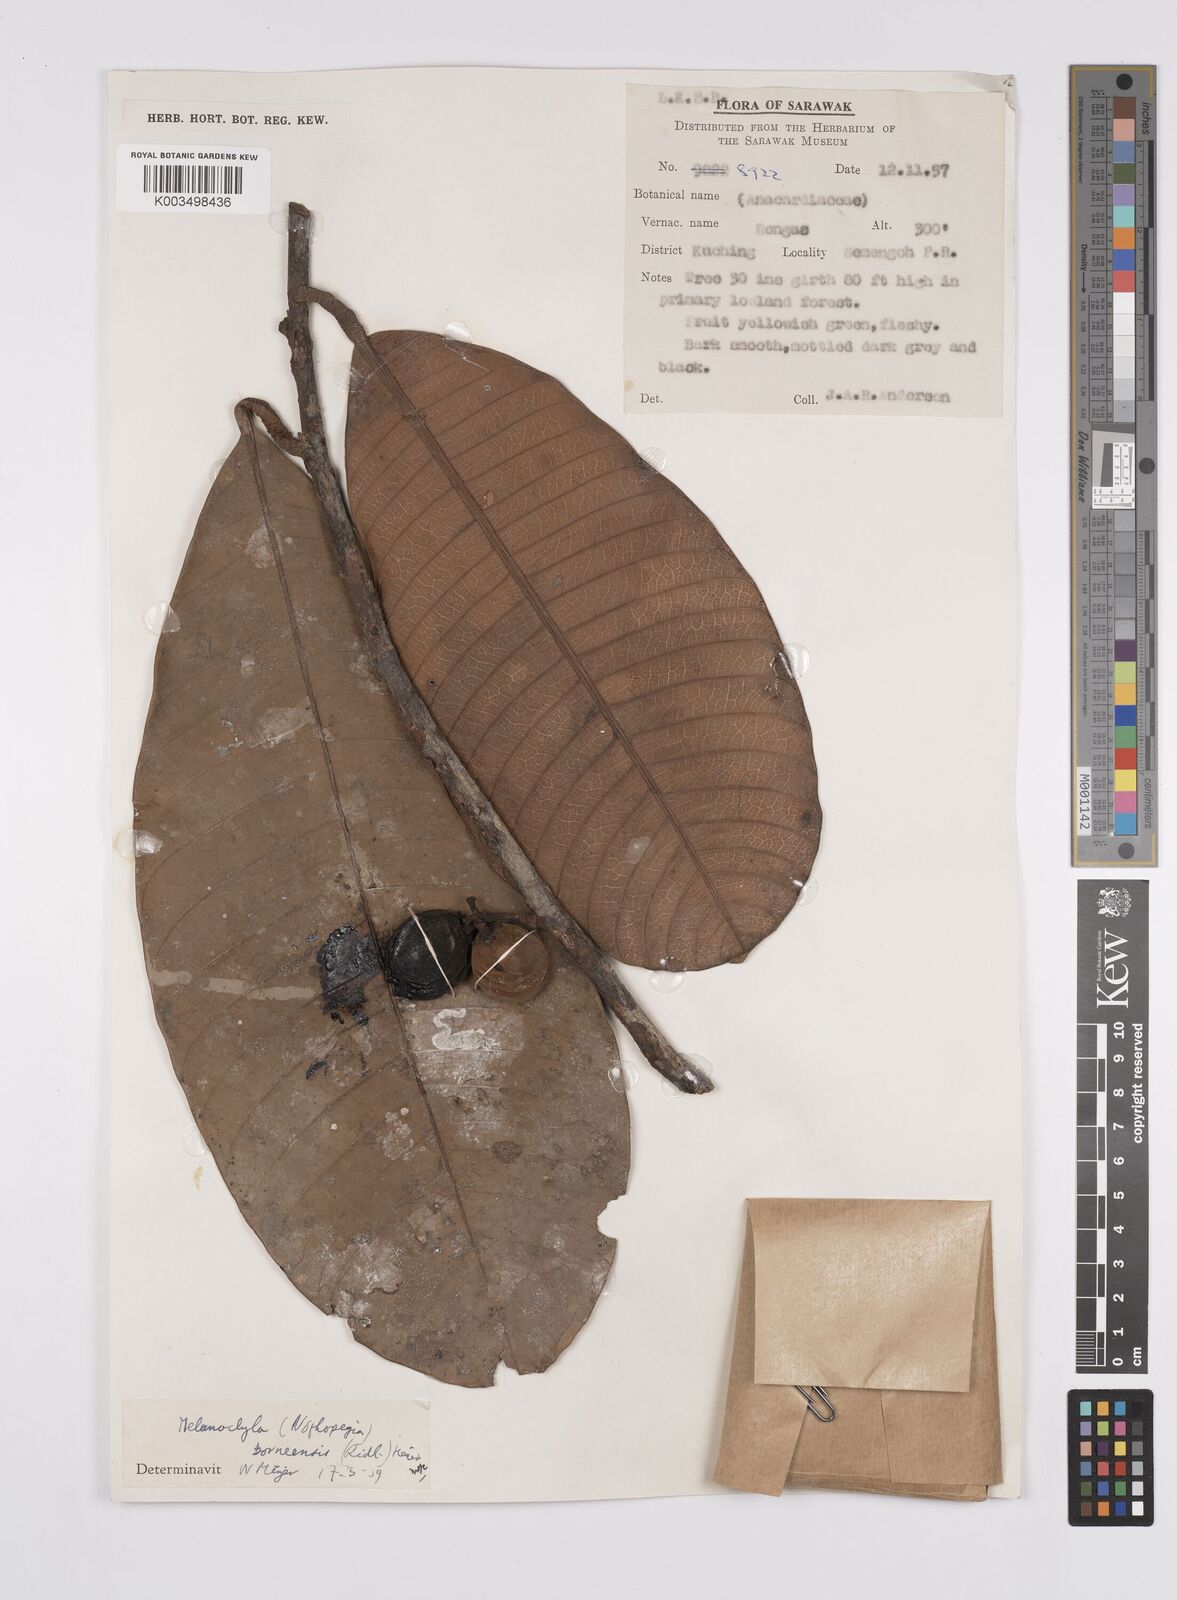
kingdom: Plantae
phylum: Tracheophyta
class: Magnoliopsida
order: Sapindales
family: Anacardiaceae
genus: Melanochyla
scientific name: Melanochyla borneensis
